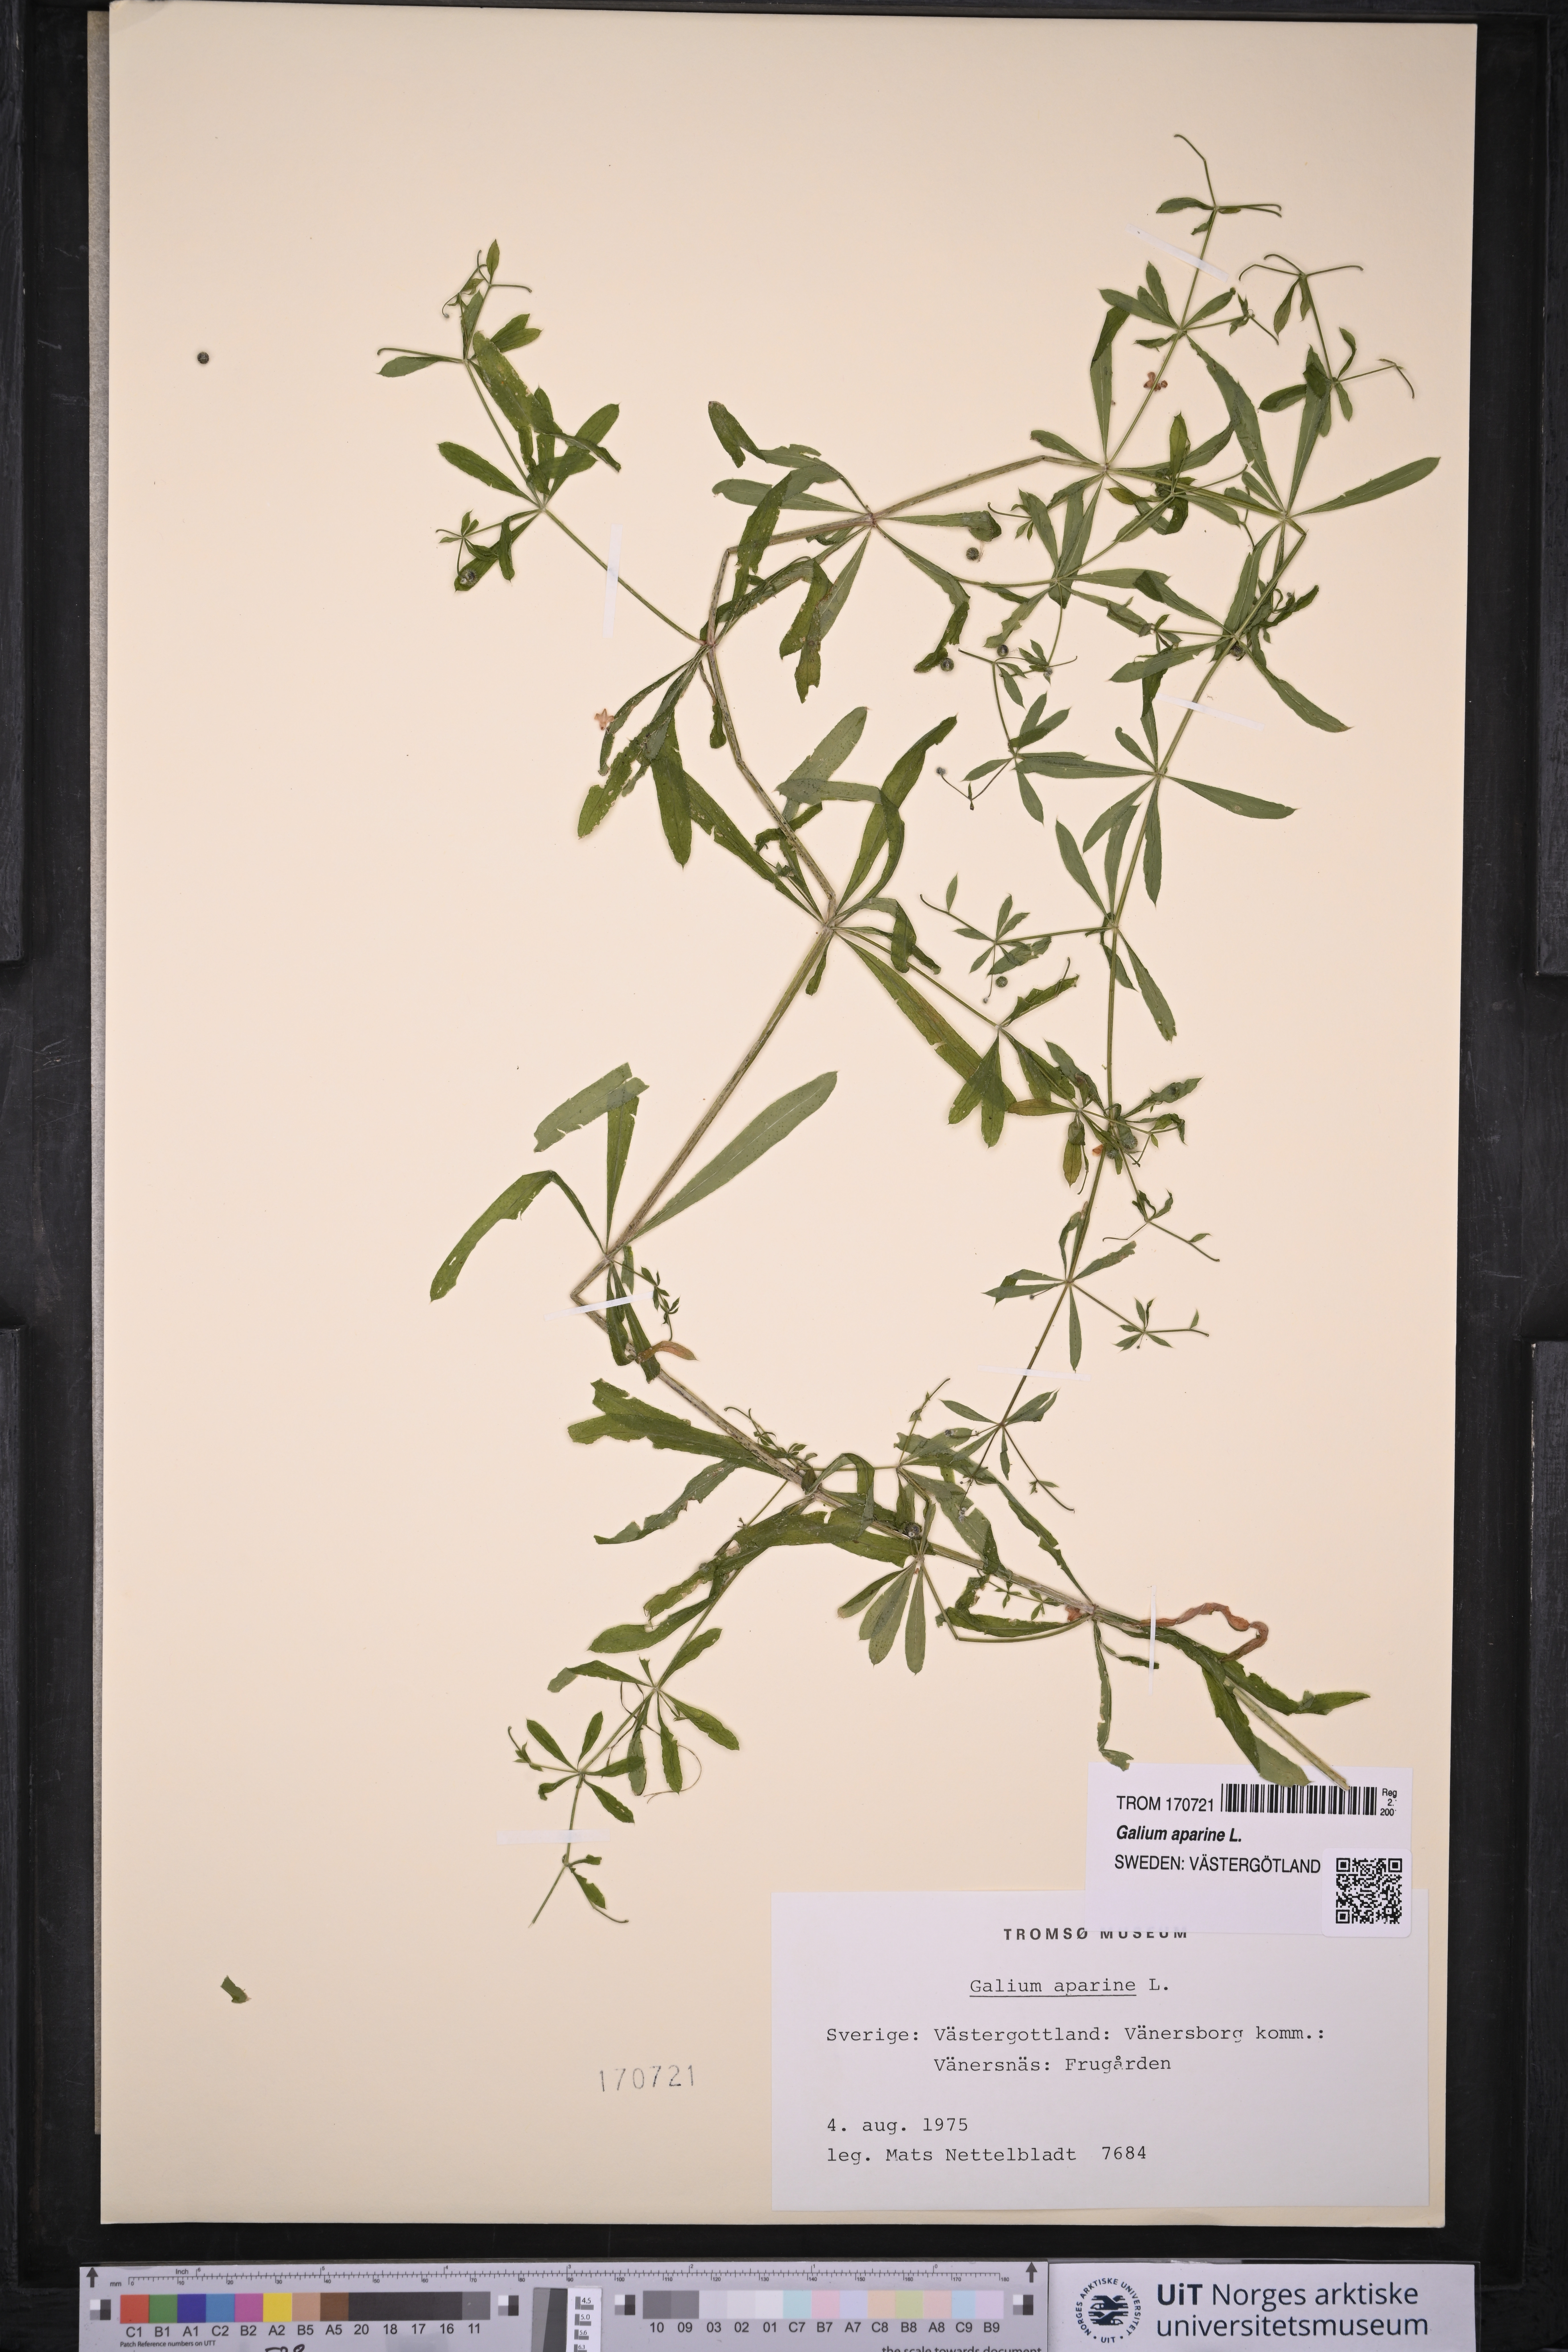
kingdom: Plantae
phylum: Tracheophyta
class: Magnoliopsida
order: Gentianales
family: Rubiaceae
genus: Galium
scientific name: Galium aparine
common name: Cleavers
